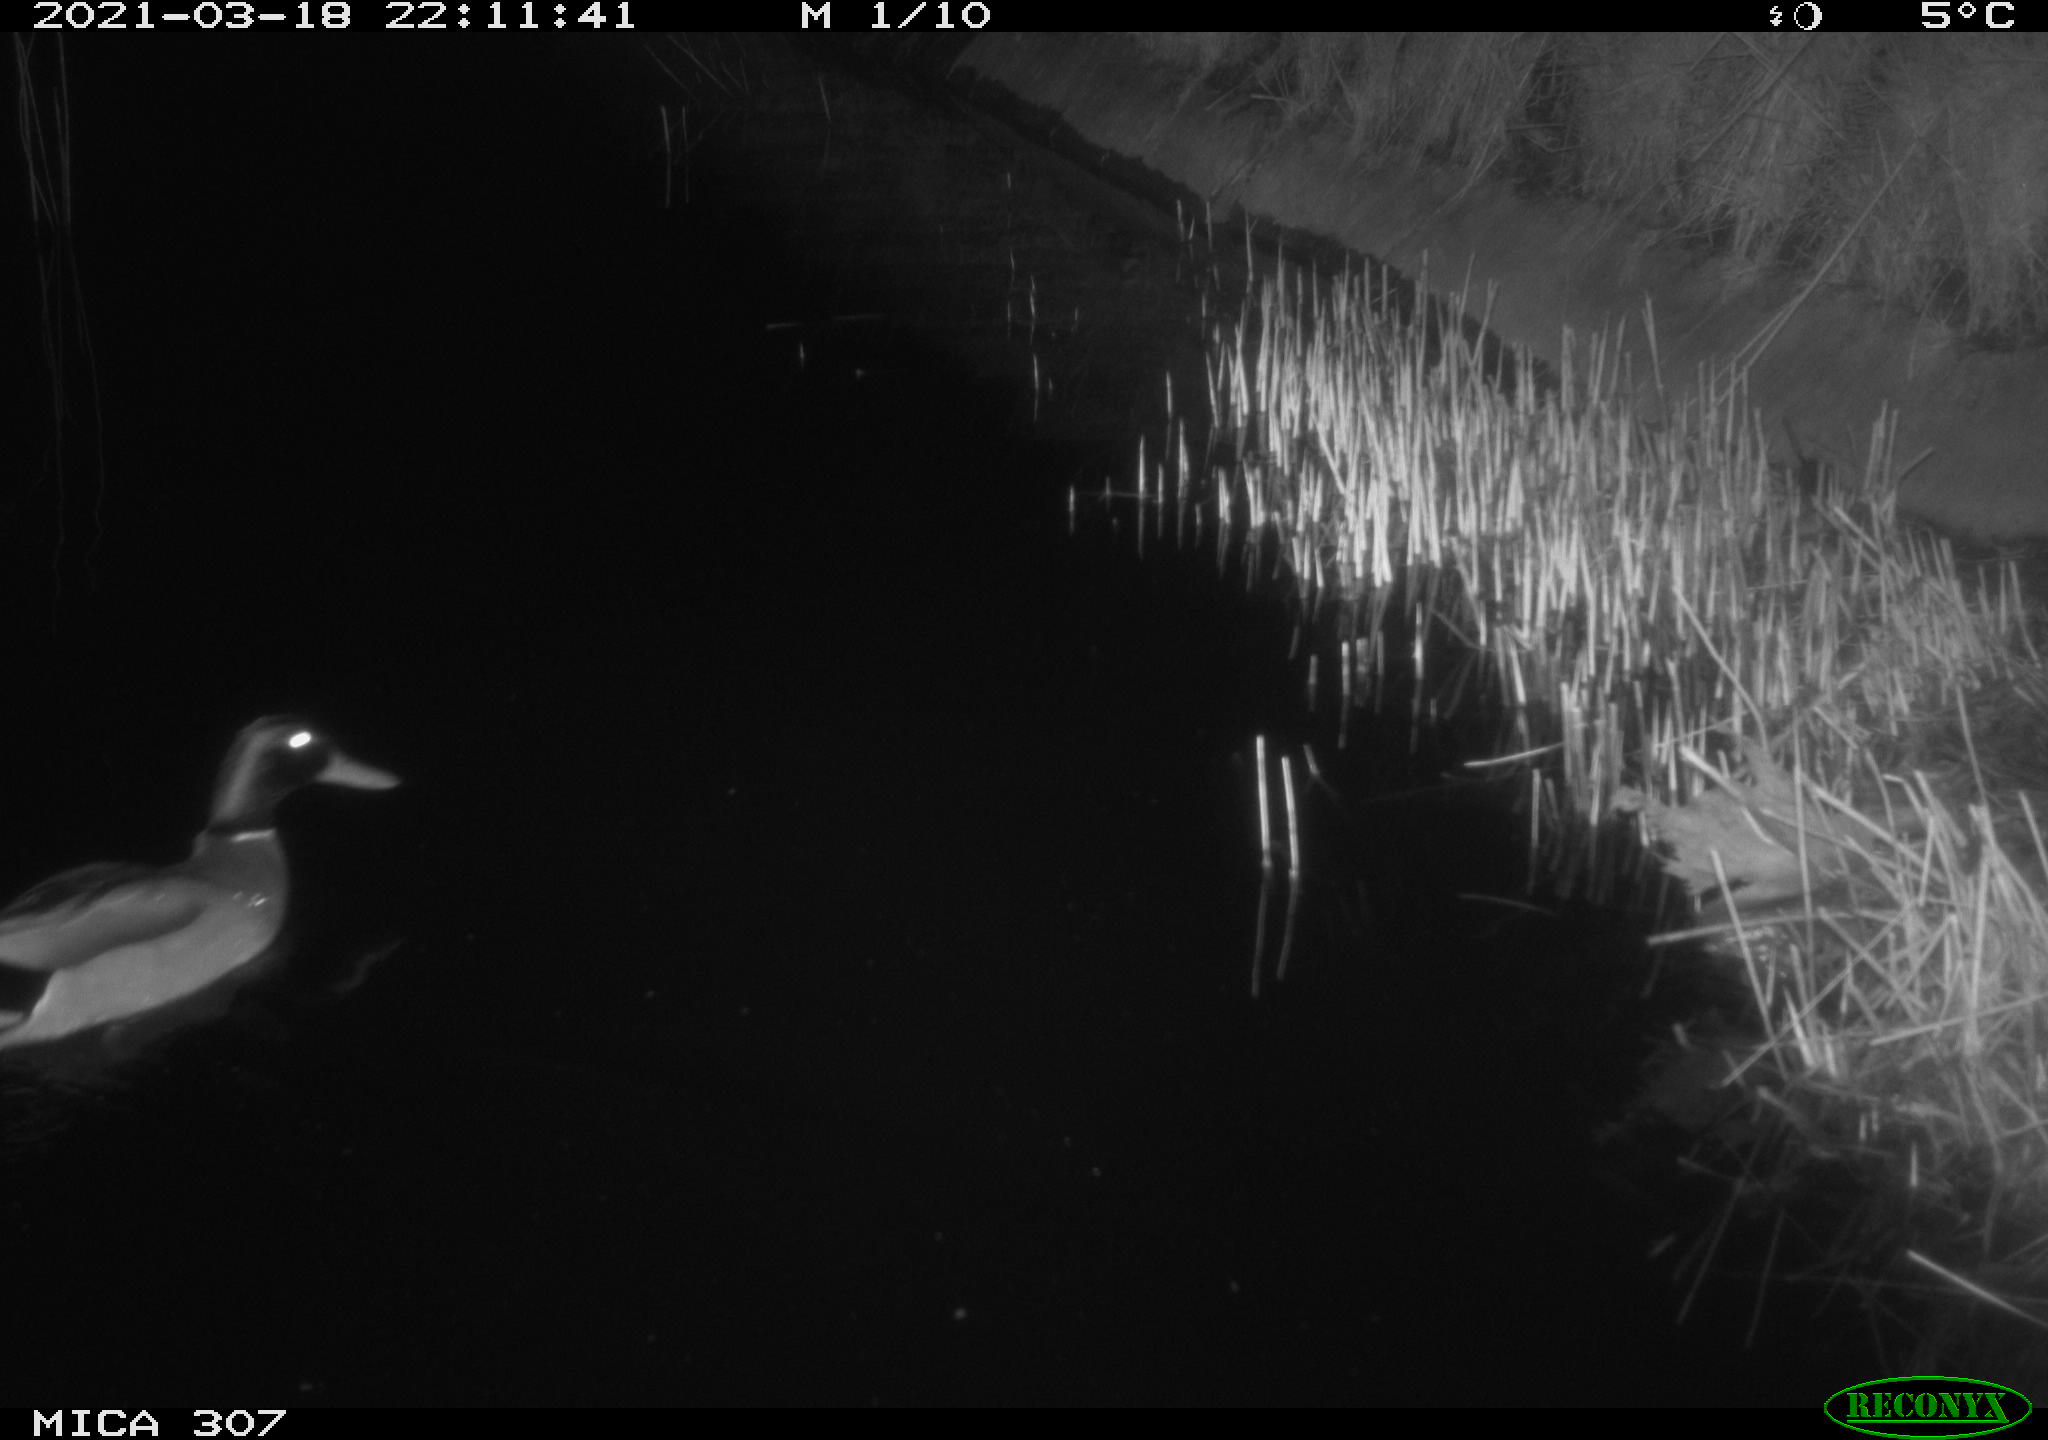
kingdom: Animalia
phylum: Chordata
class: Aves
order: Anseriformes
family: Anatidae
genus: Anas
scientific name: Anas platyrhynchos
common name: Mallard
